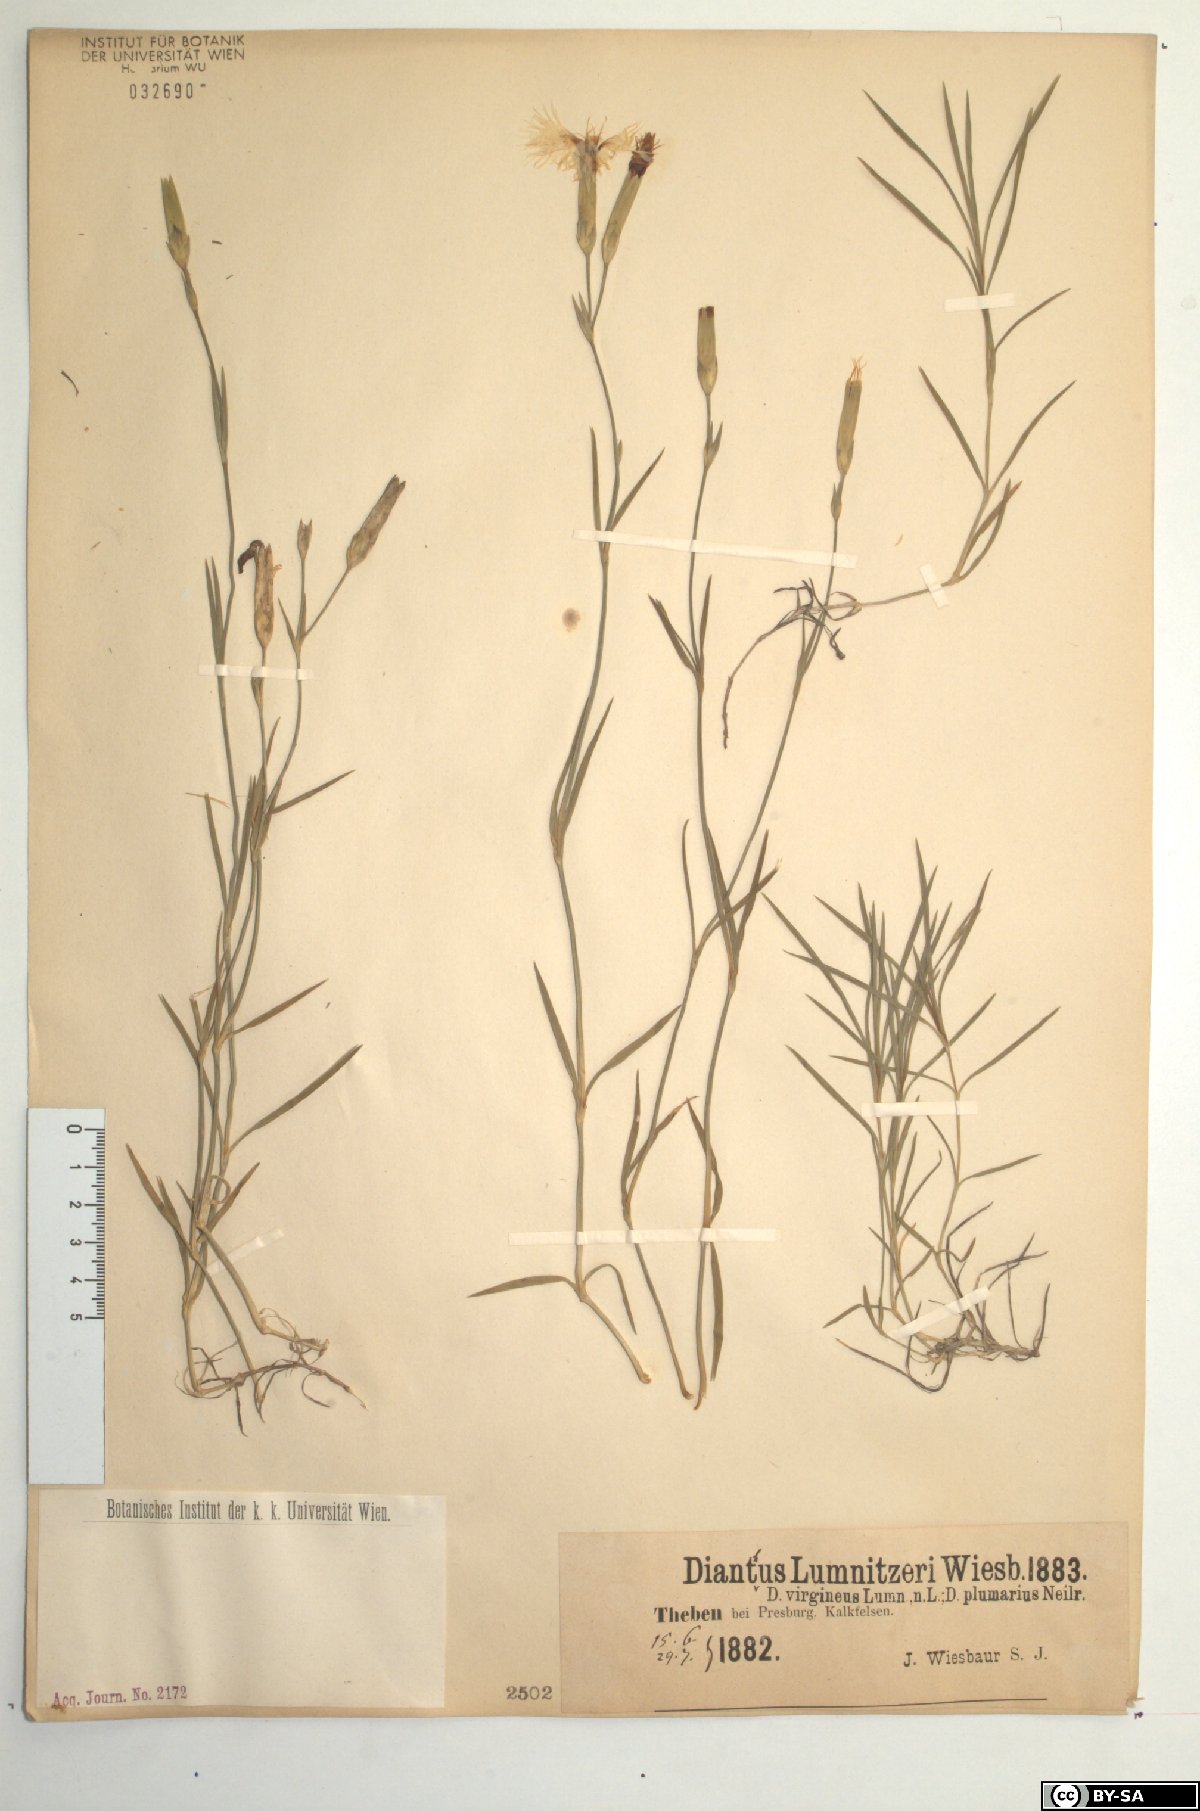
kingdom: Plantae
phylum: Tracheophyta
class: Magnoliopsida
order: Caryophyllales
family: Caryophyllaceae
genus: Dianthus
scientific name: Dianthus praecox
